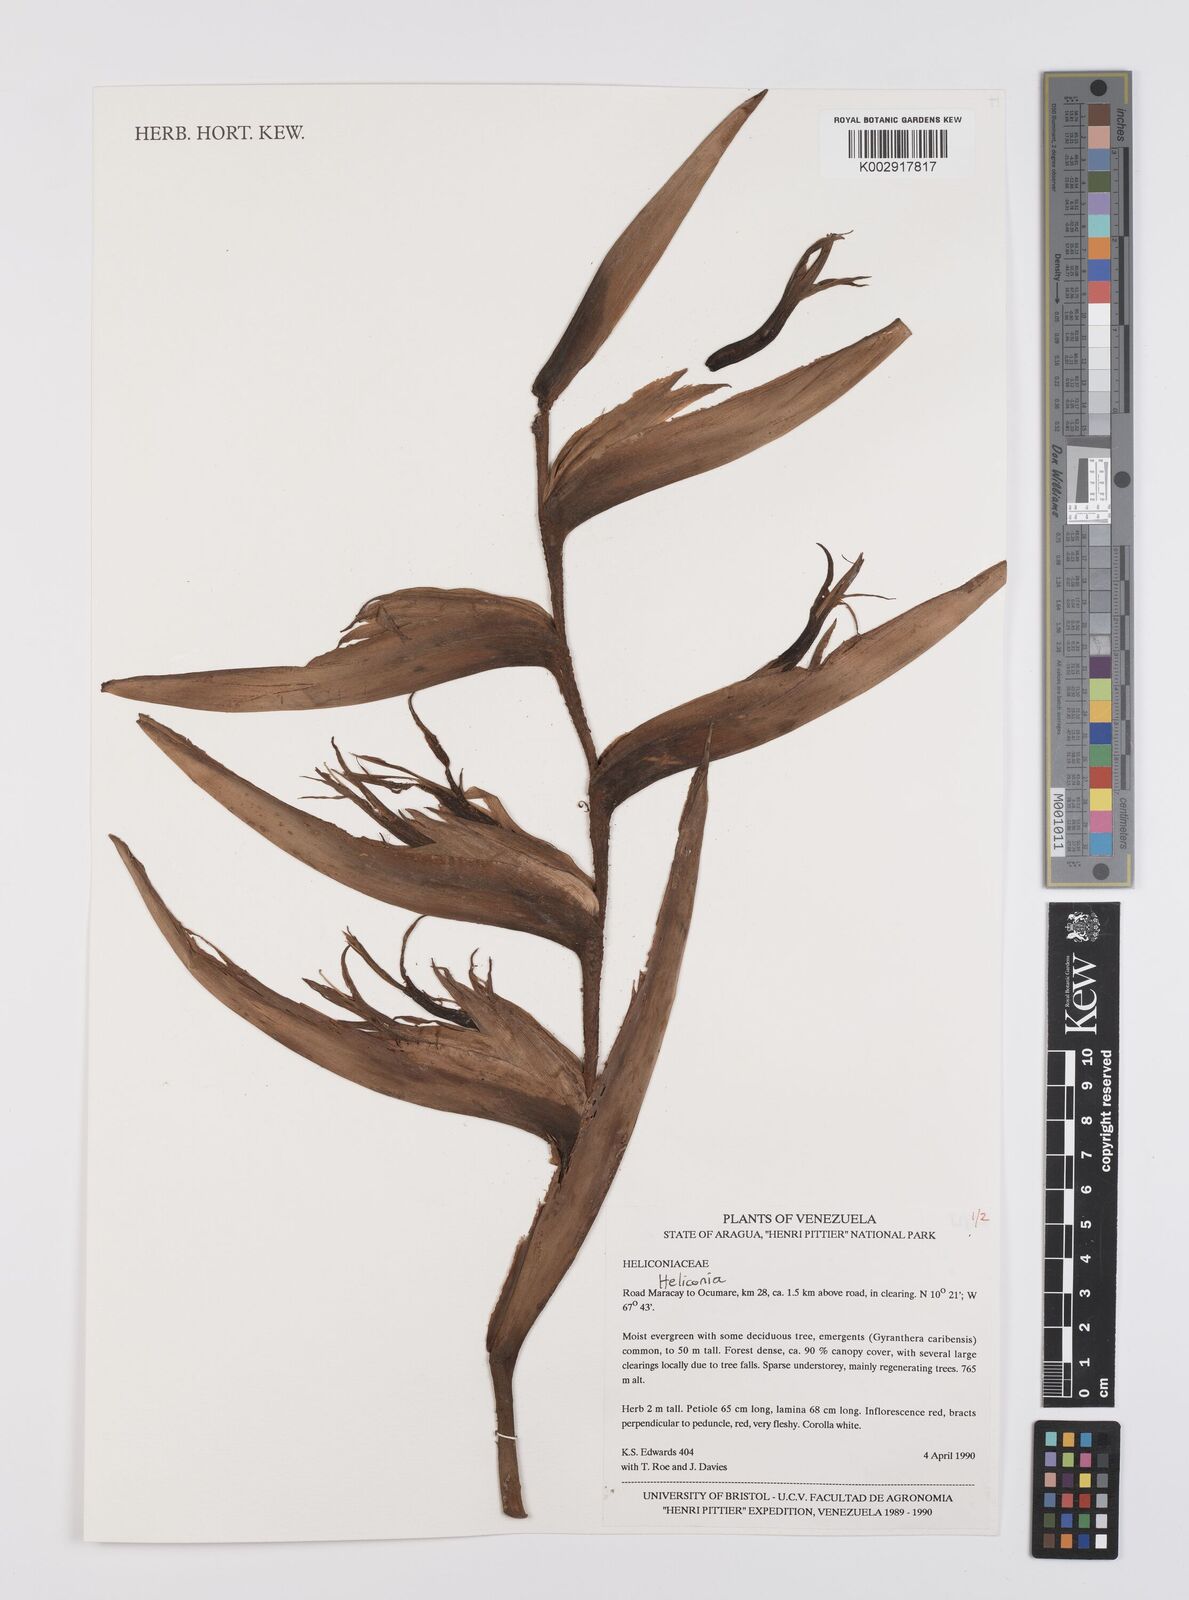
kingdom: Plantae
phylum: Tracheophyta
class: Liliopsida
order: Zingiberales
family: Heliconiaceae
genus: Heliconia
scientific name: Heliconia
